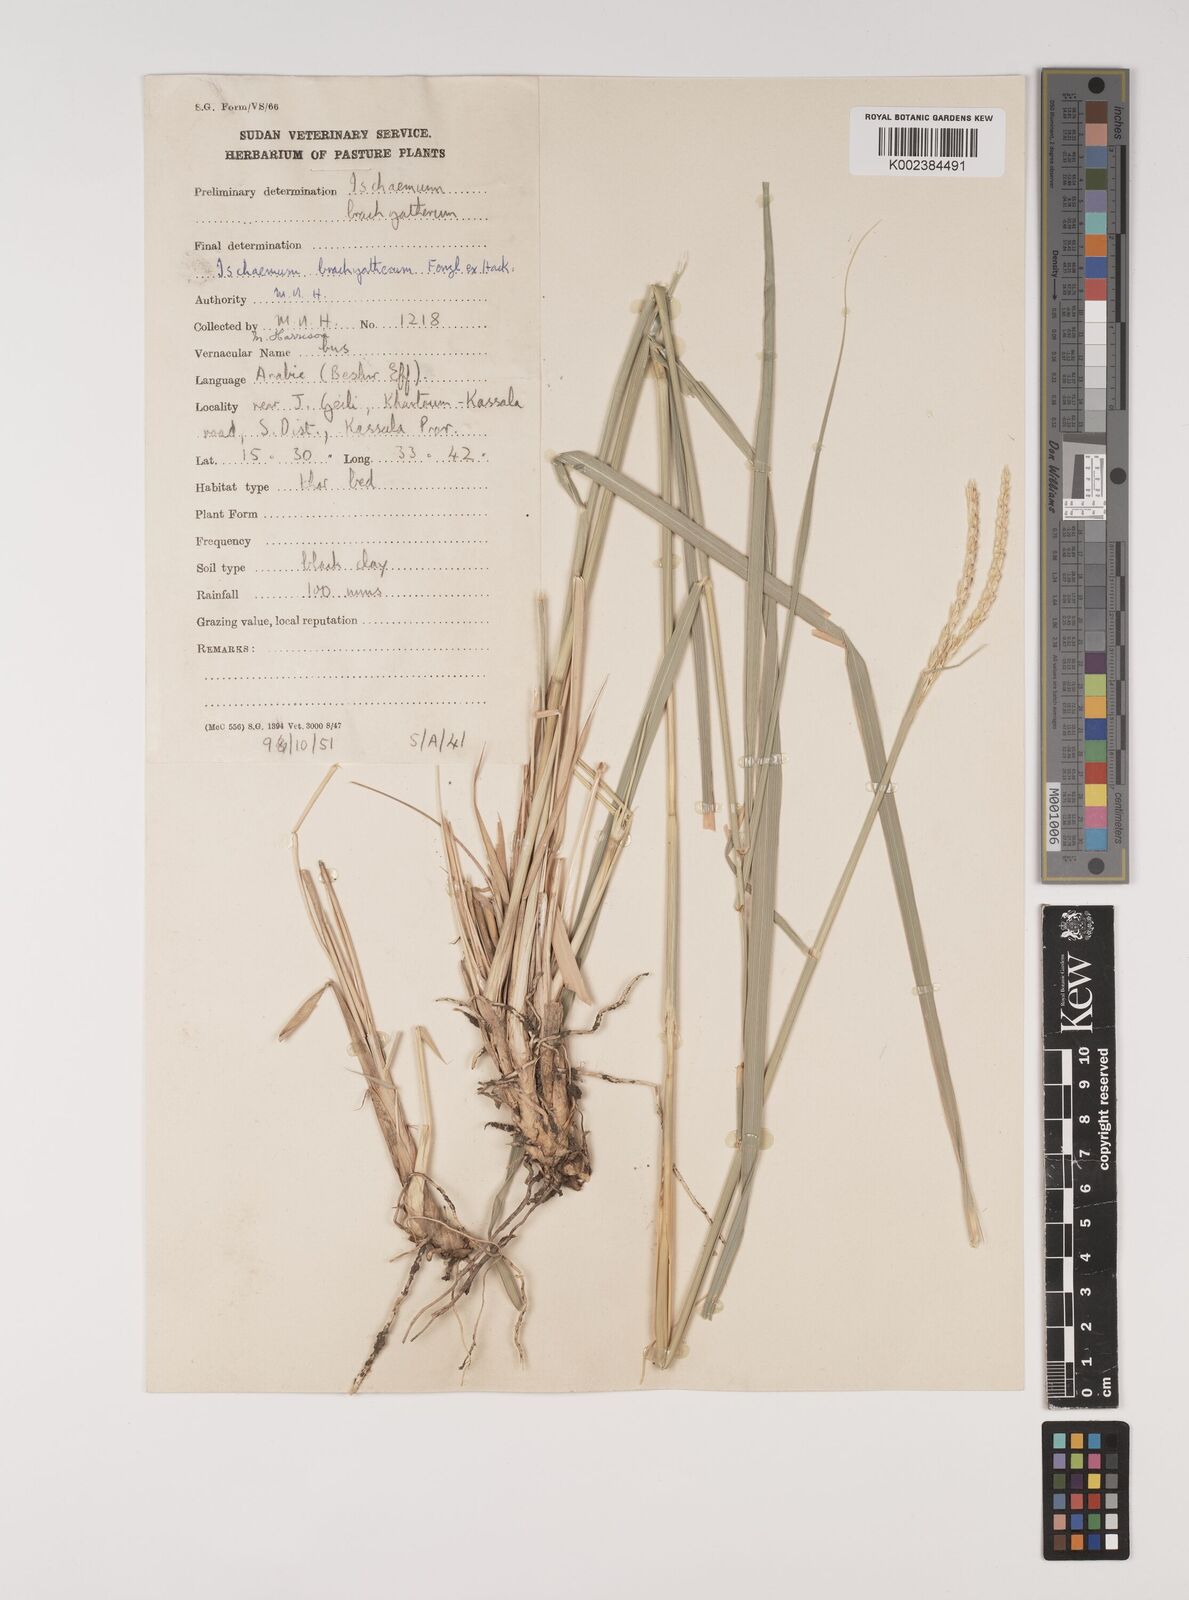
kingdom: Plantae
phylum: Tracheophyta
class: Liliopsida
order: Poales
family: Poaceae
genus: Ischaemum
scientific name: Ischaemum afrum
